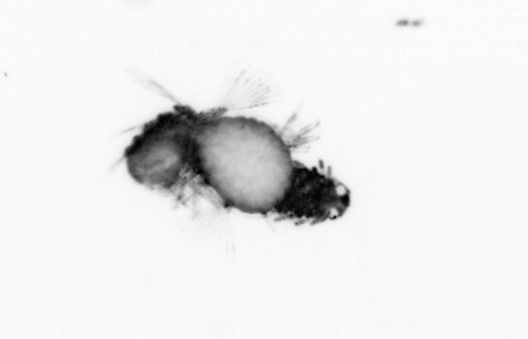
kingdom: Animalia
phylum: Annelida
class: Polychaeta
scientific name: Polychaeta
